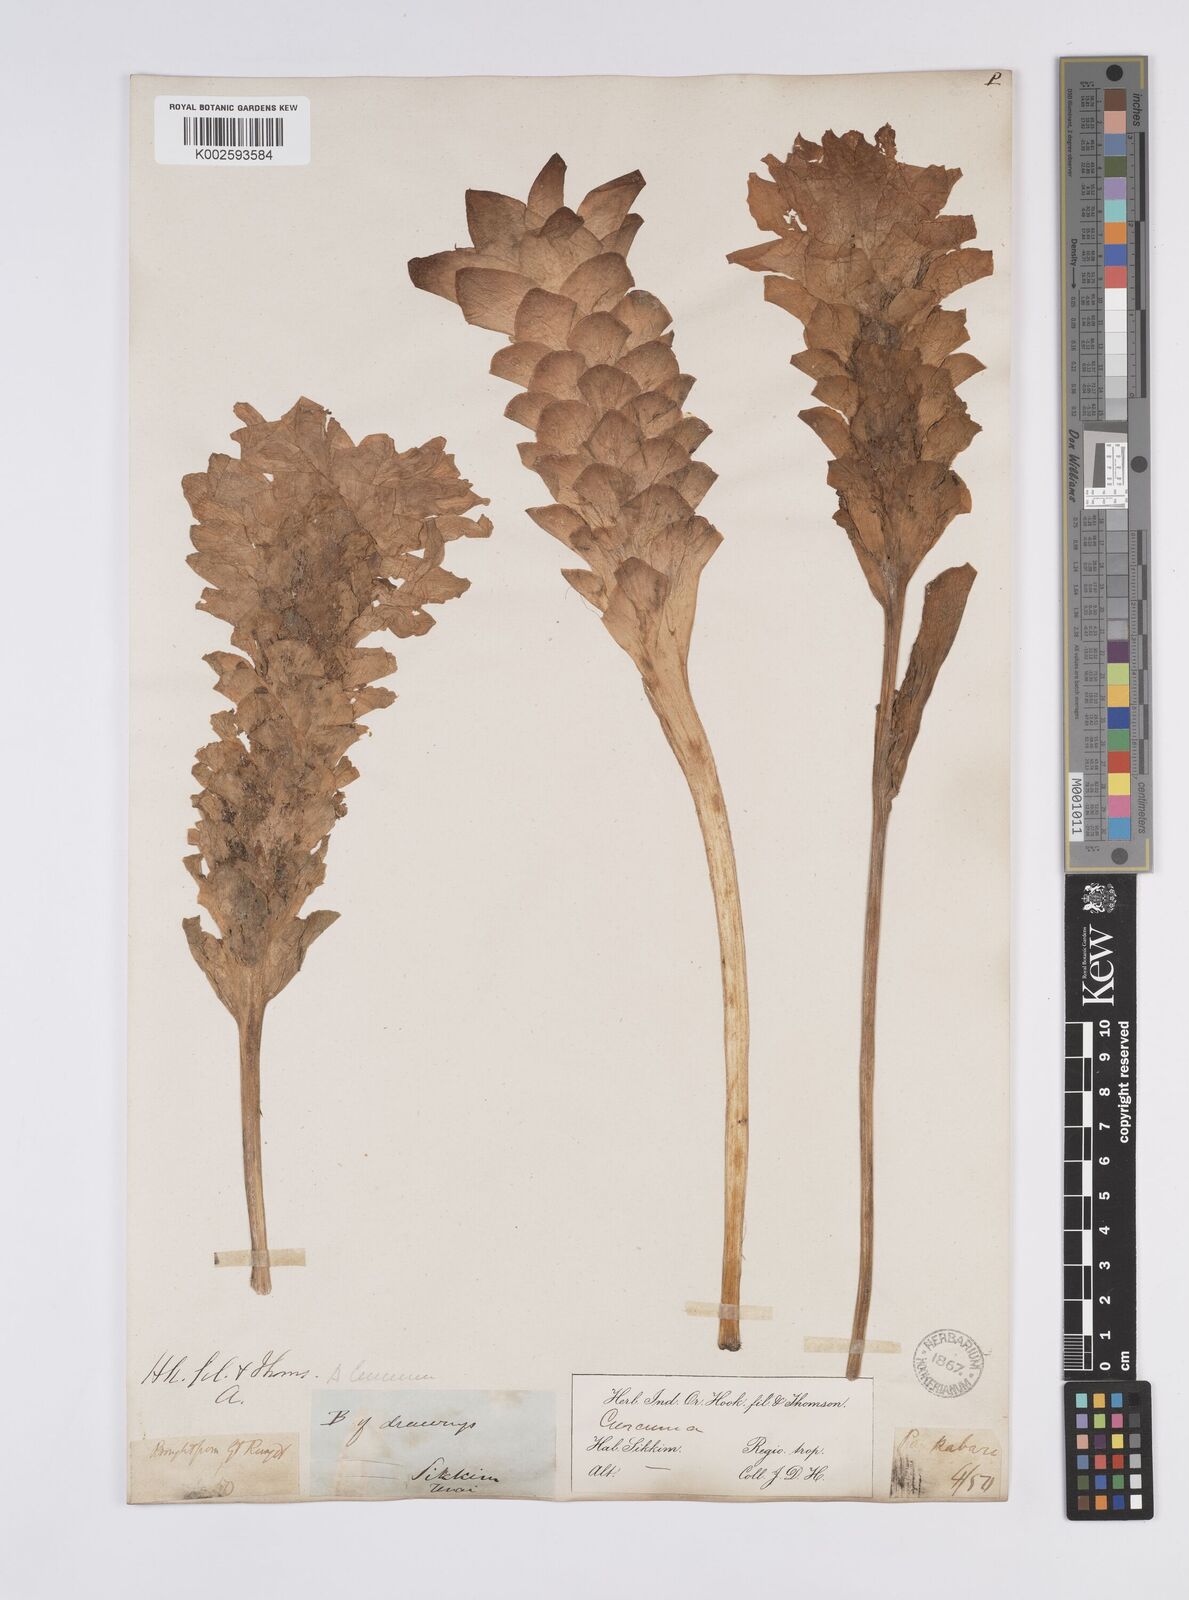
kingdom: Plantae
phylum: Tracheophyta
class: Liliopsida
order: Zingiberales
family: Zingiberaceae
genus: Curcuma
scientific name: Curcuma aromatica
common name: Wild turmeric
